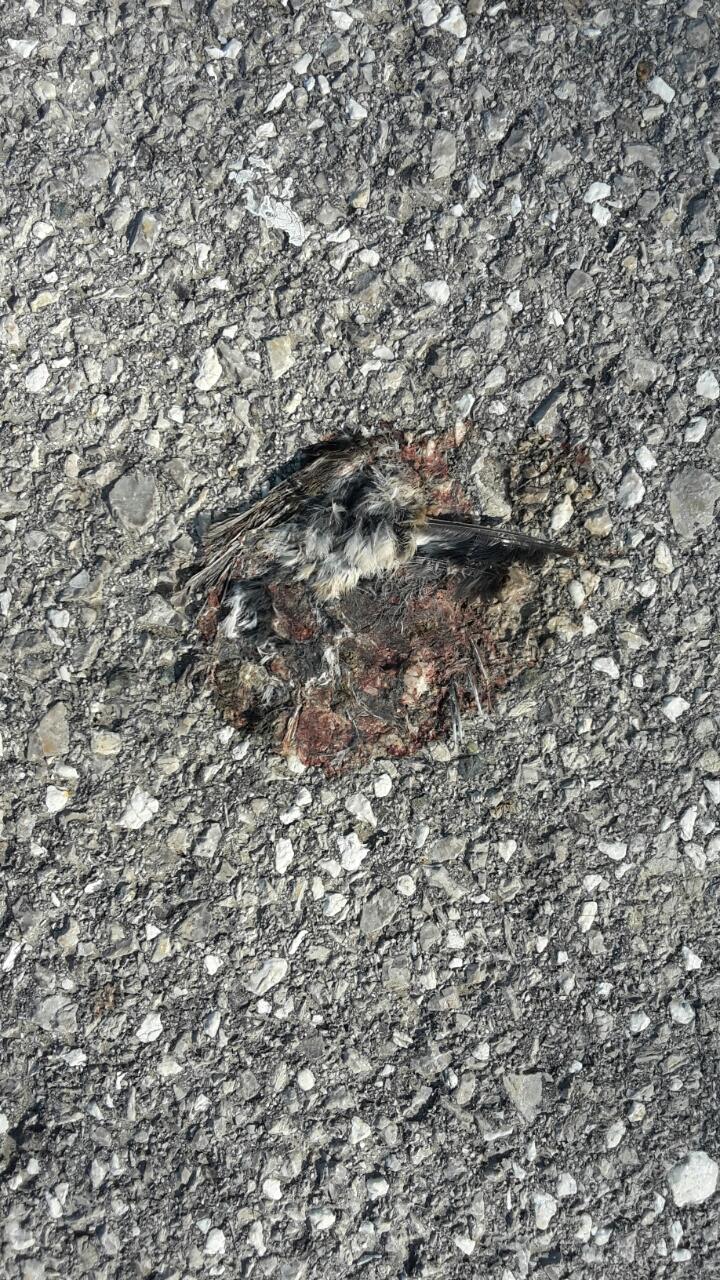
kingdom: Animalia
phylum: Chordata
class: Aves
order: Passeriformes
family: Passeridae
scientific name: Passeridae
